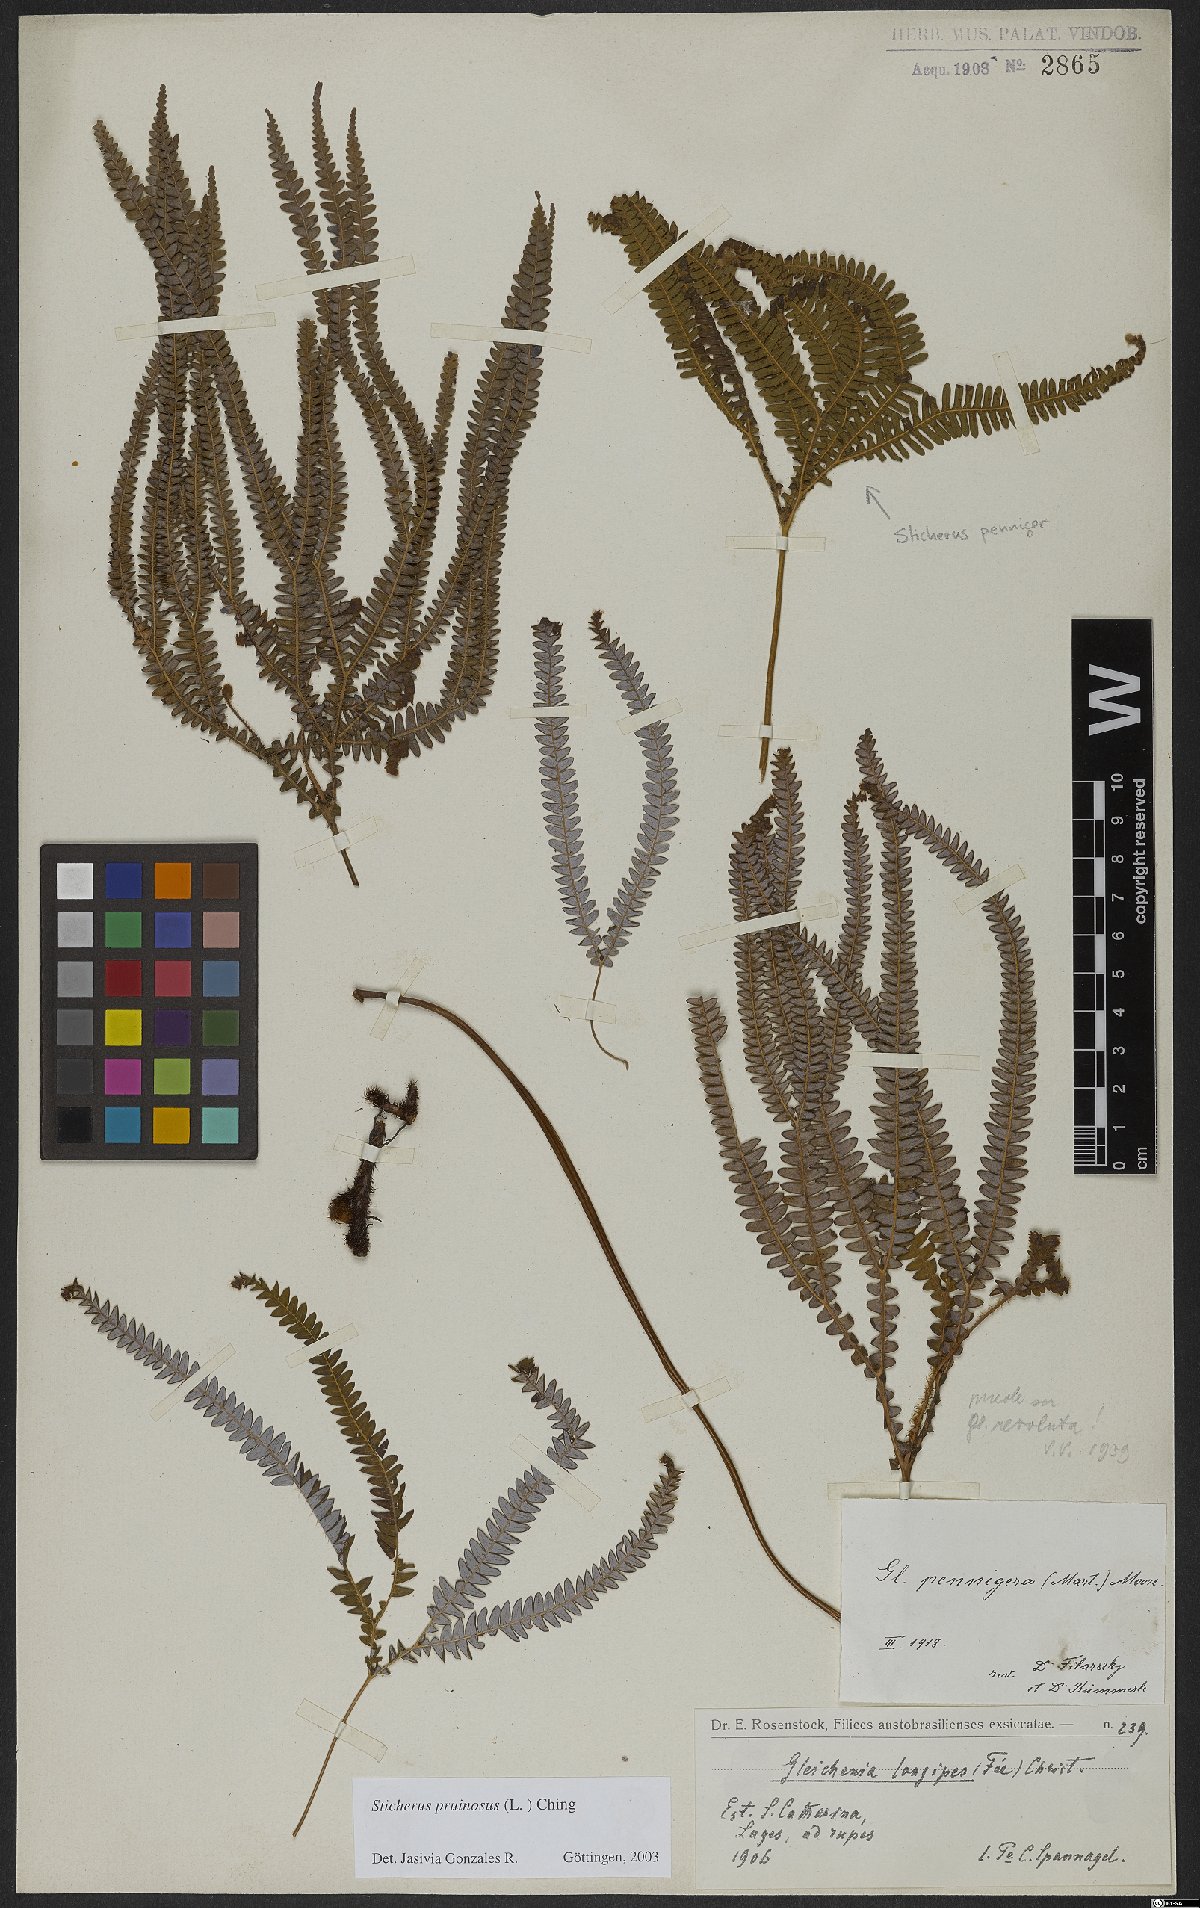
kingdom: Plantae
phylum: Tracheophyta
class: Polypodiopsida
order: Gleicheniales
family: Gleicheniaceae
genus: Sticherus
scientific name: Sticherus pruinosus
